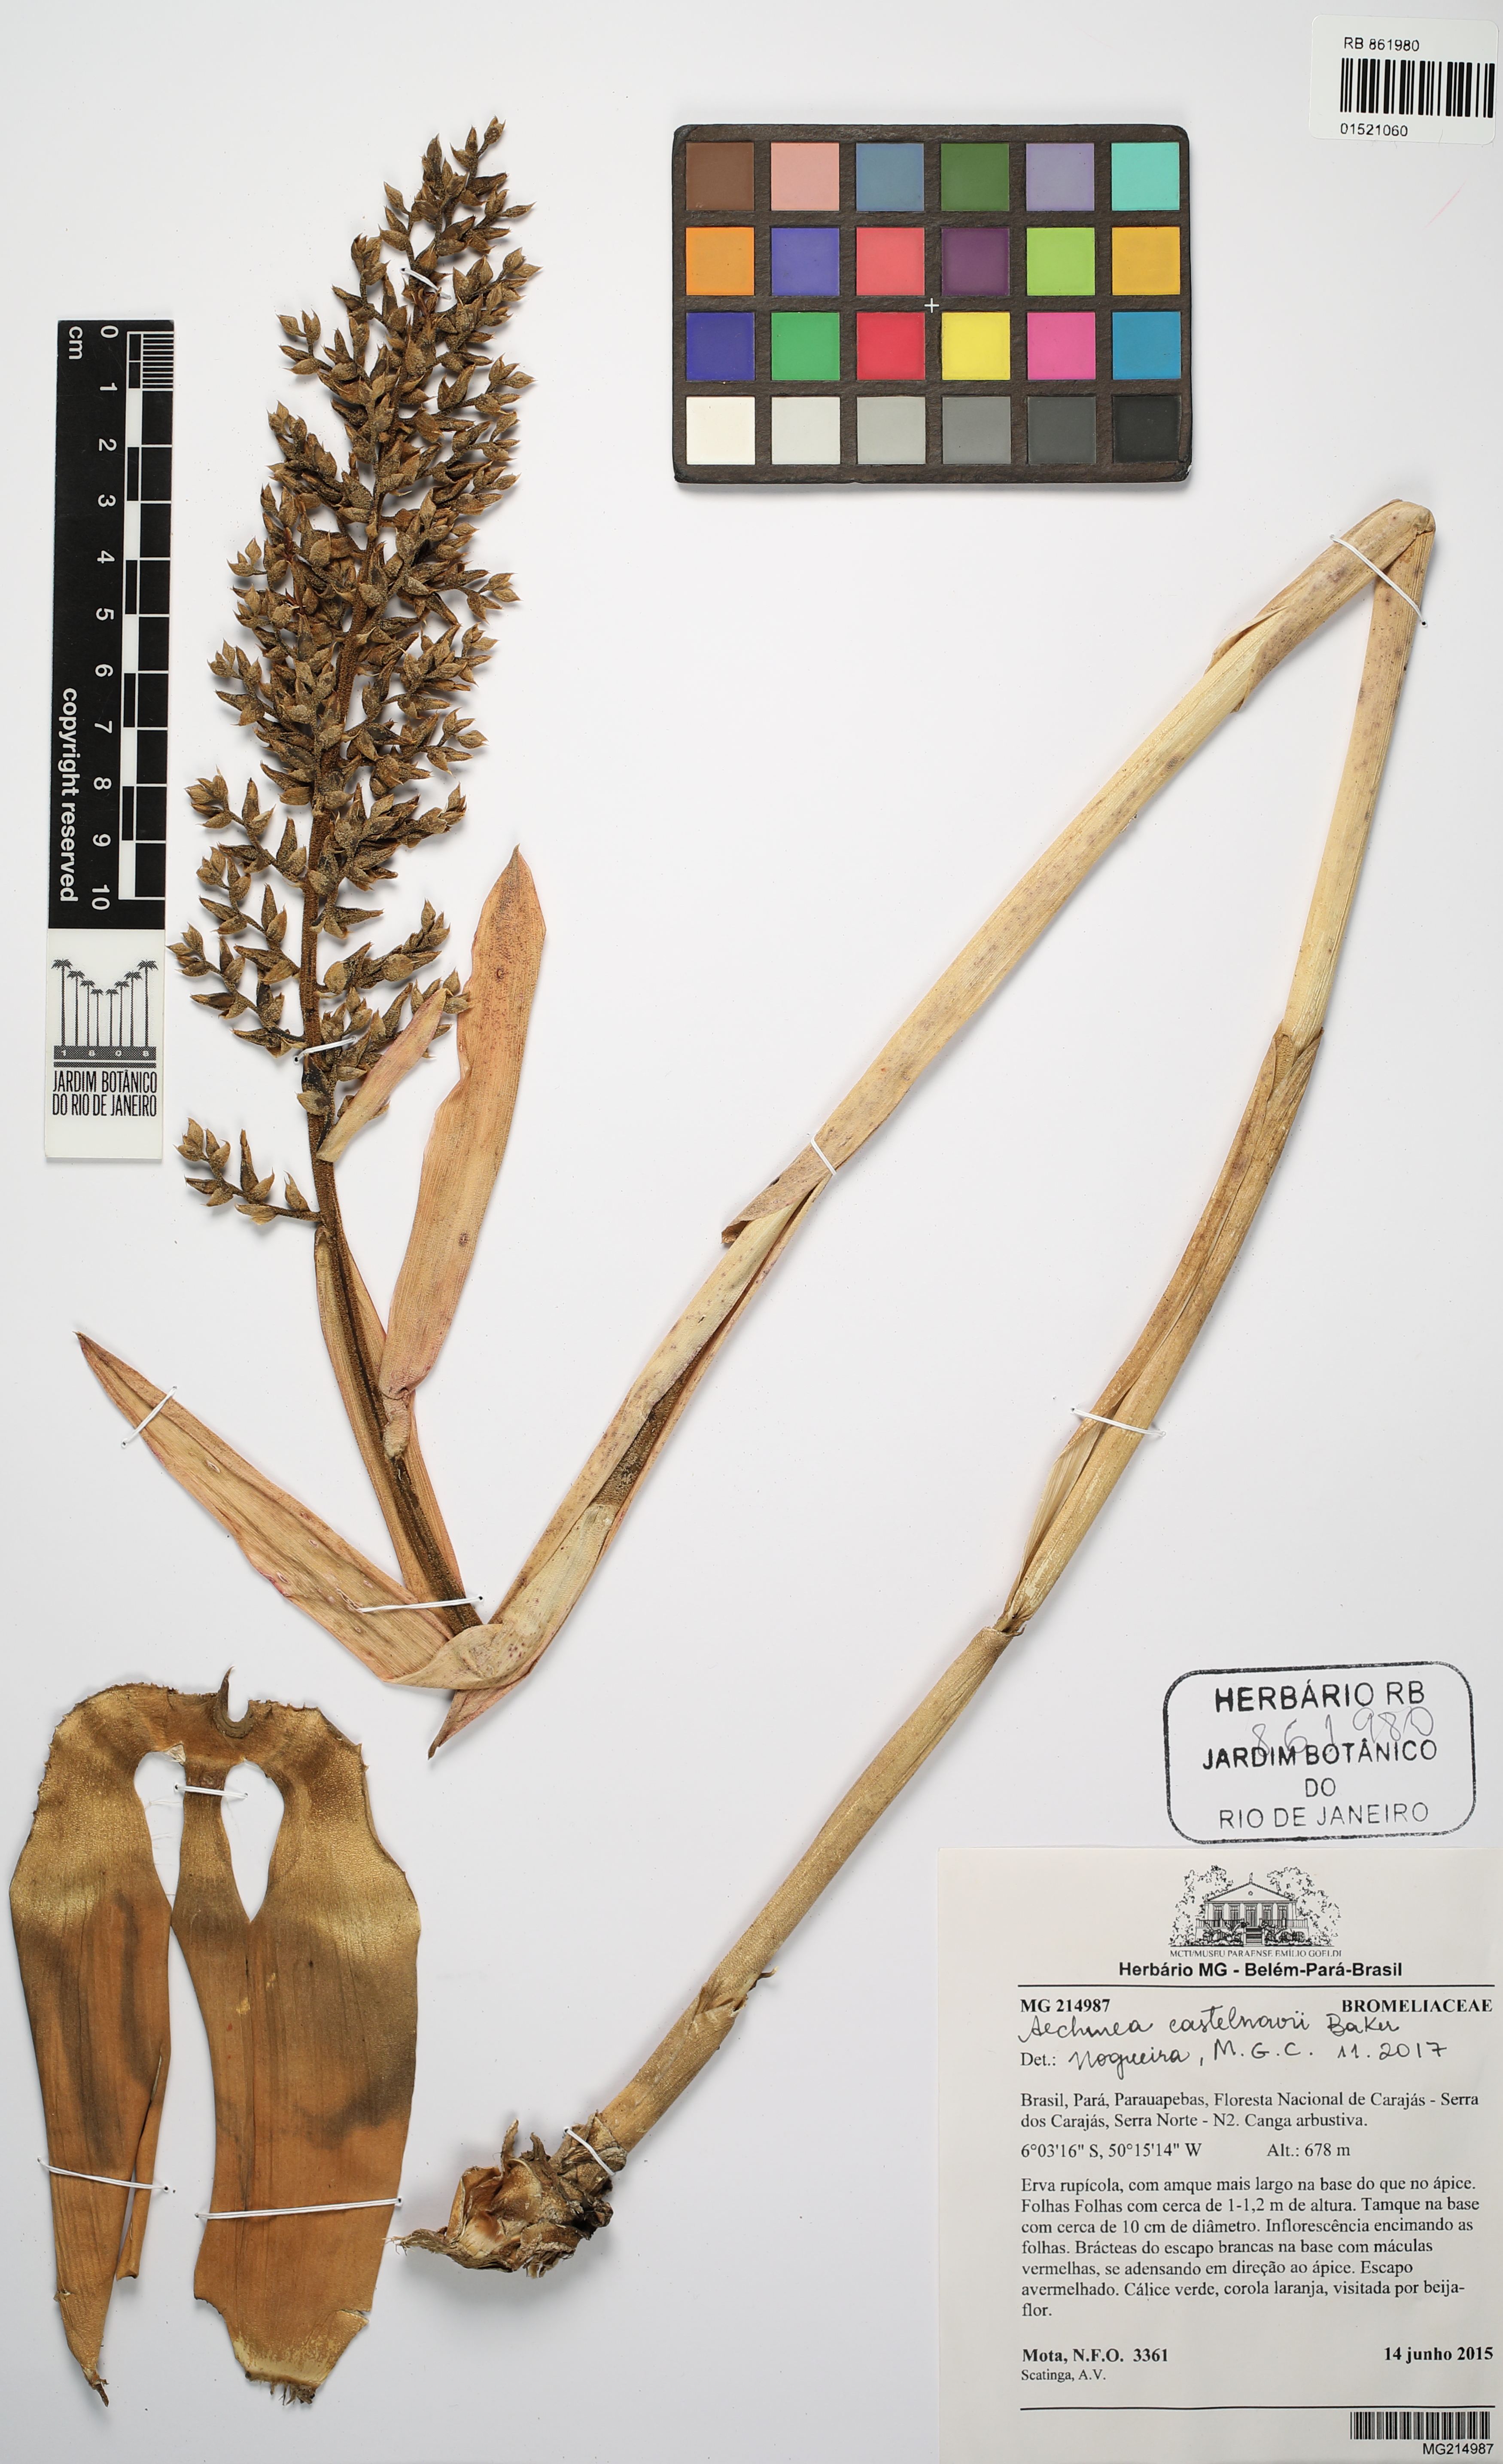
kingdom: Plantae
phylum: Tracheophyta
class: Liliopsida
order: Poales
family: Bromeliaceae
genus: Aechmea
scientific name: Aechmea castelnavii
